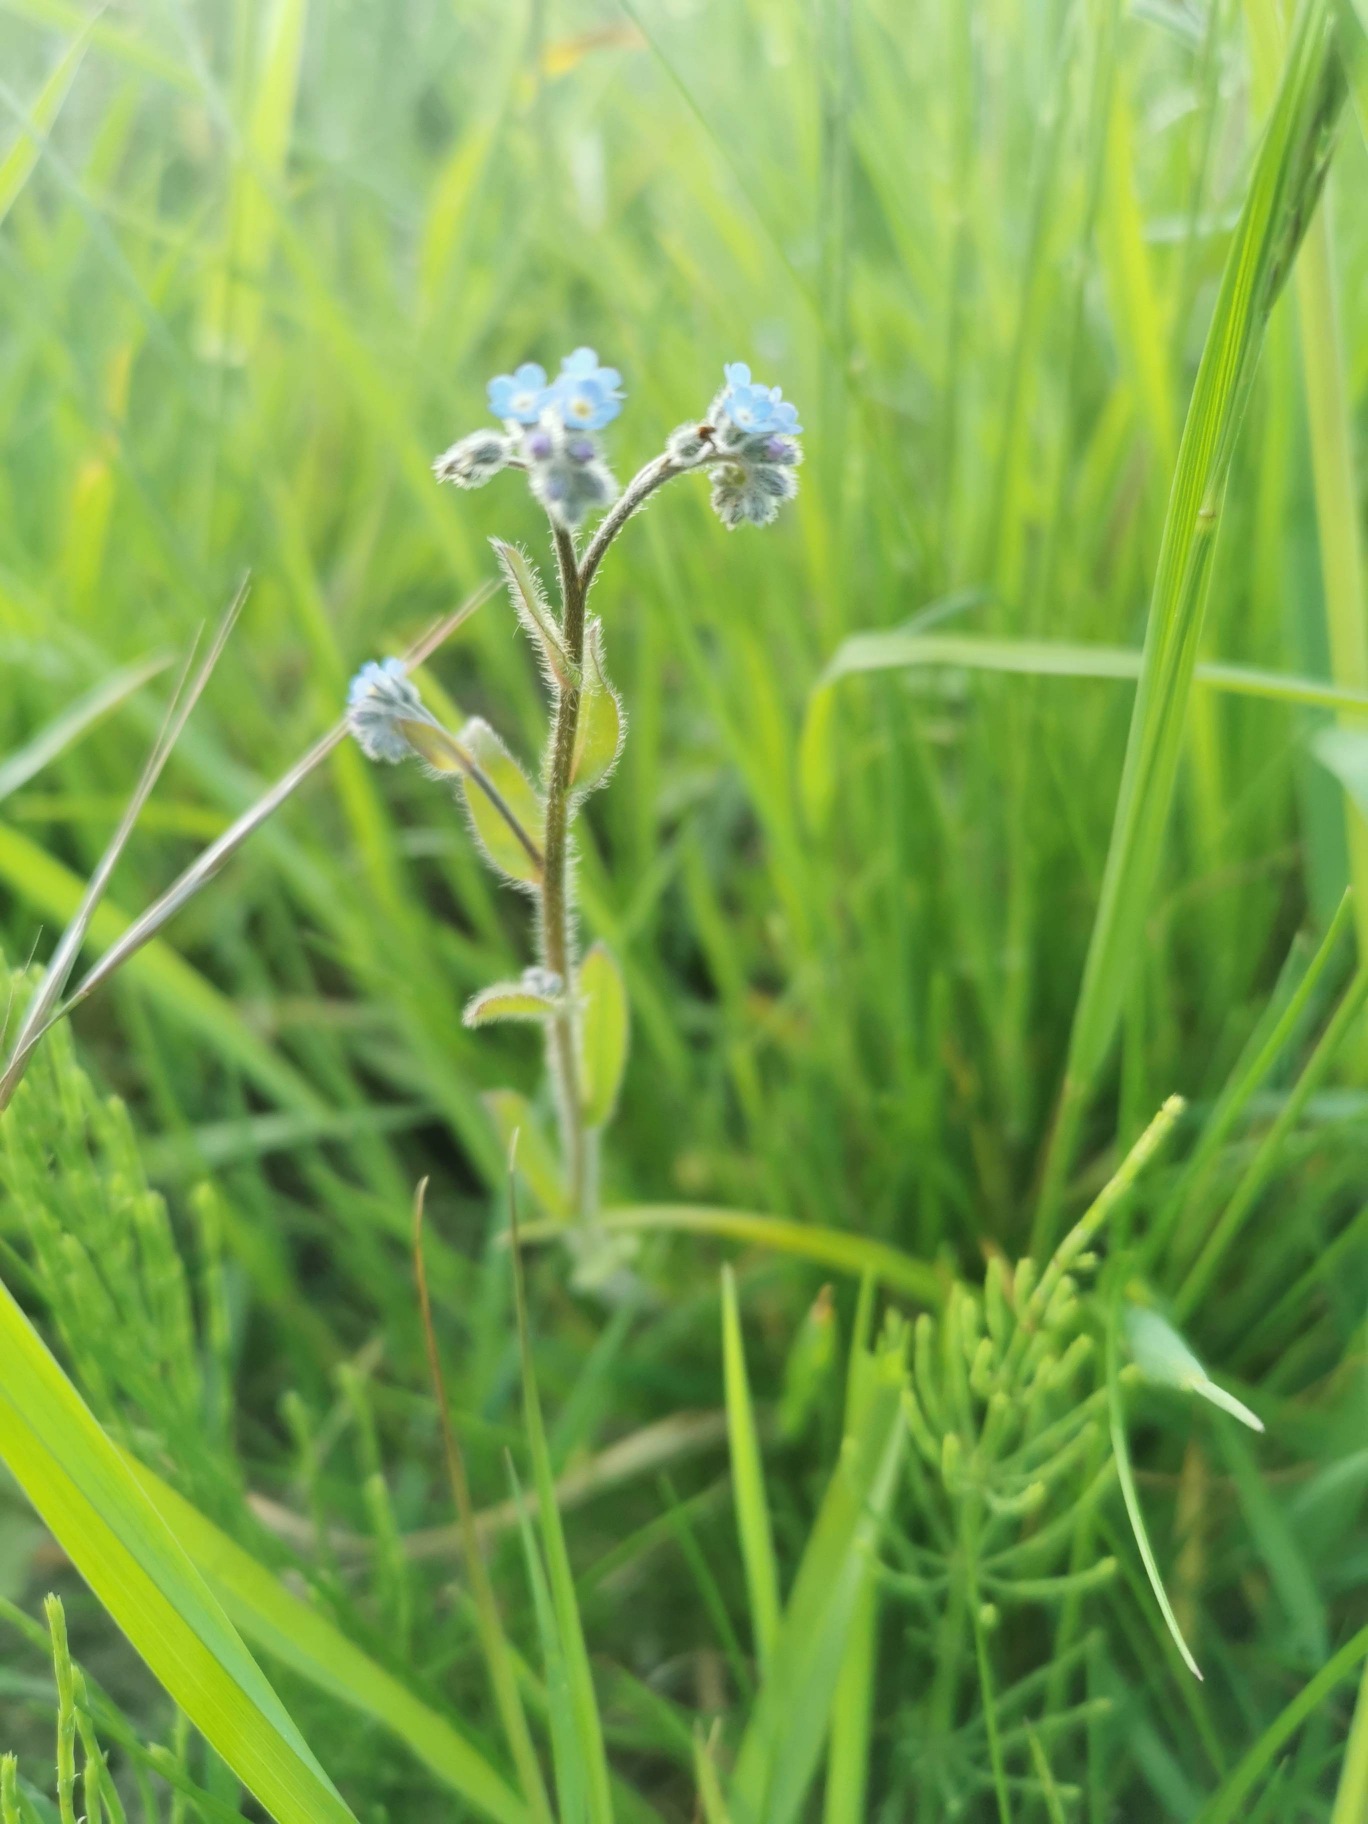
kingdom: Plantae
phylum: Tracheophyta
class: Magnoliopsida
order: Boraginales
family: Boraginaceae
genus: Myosotis
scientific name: Myosotis arvensis
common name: Mark-forglemmigej
